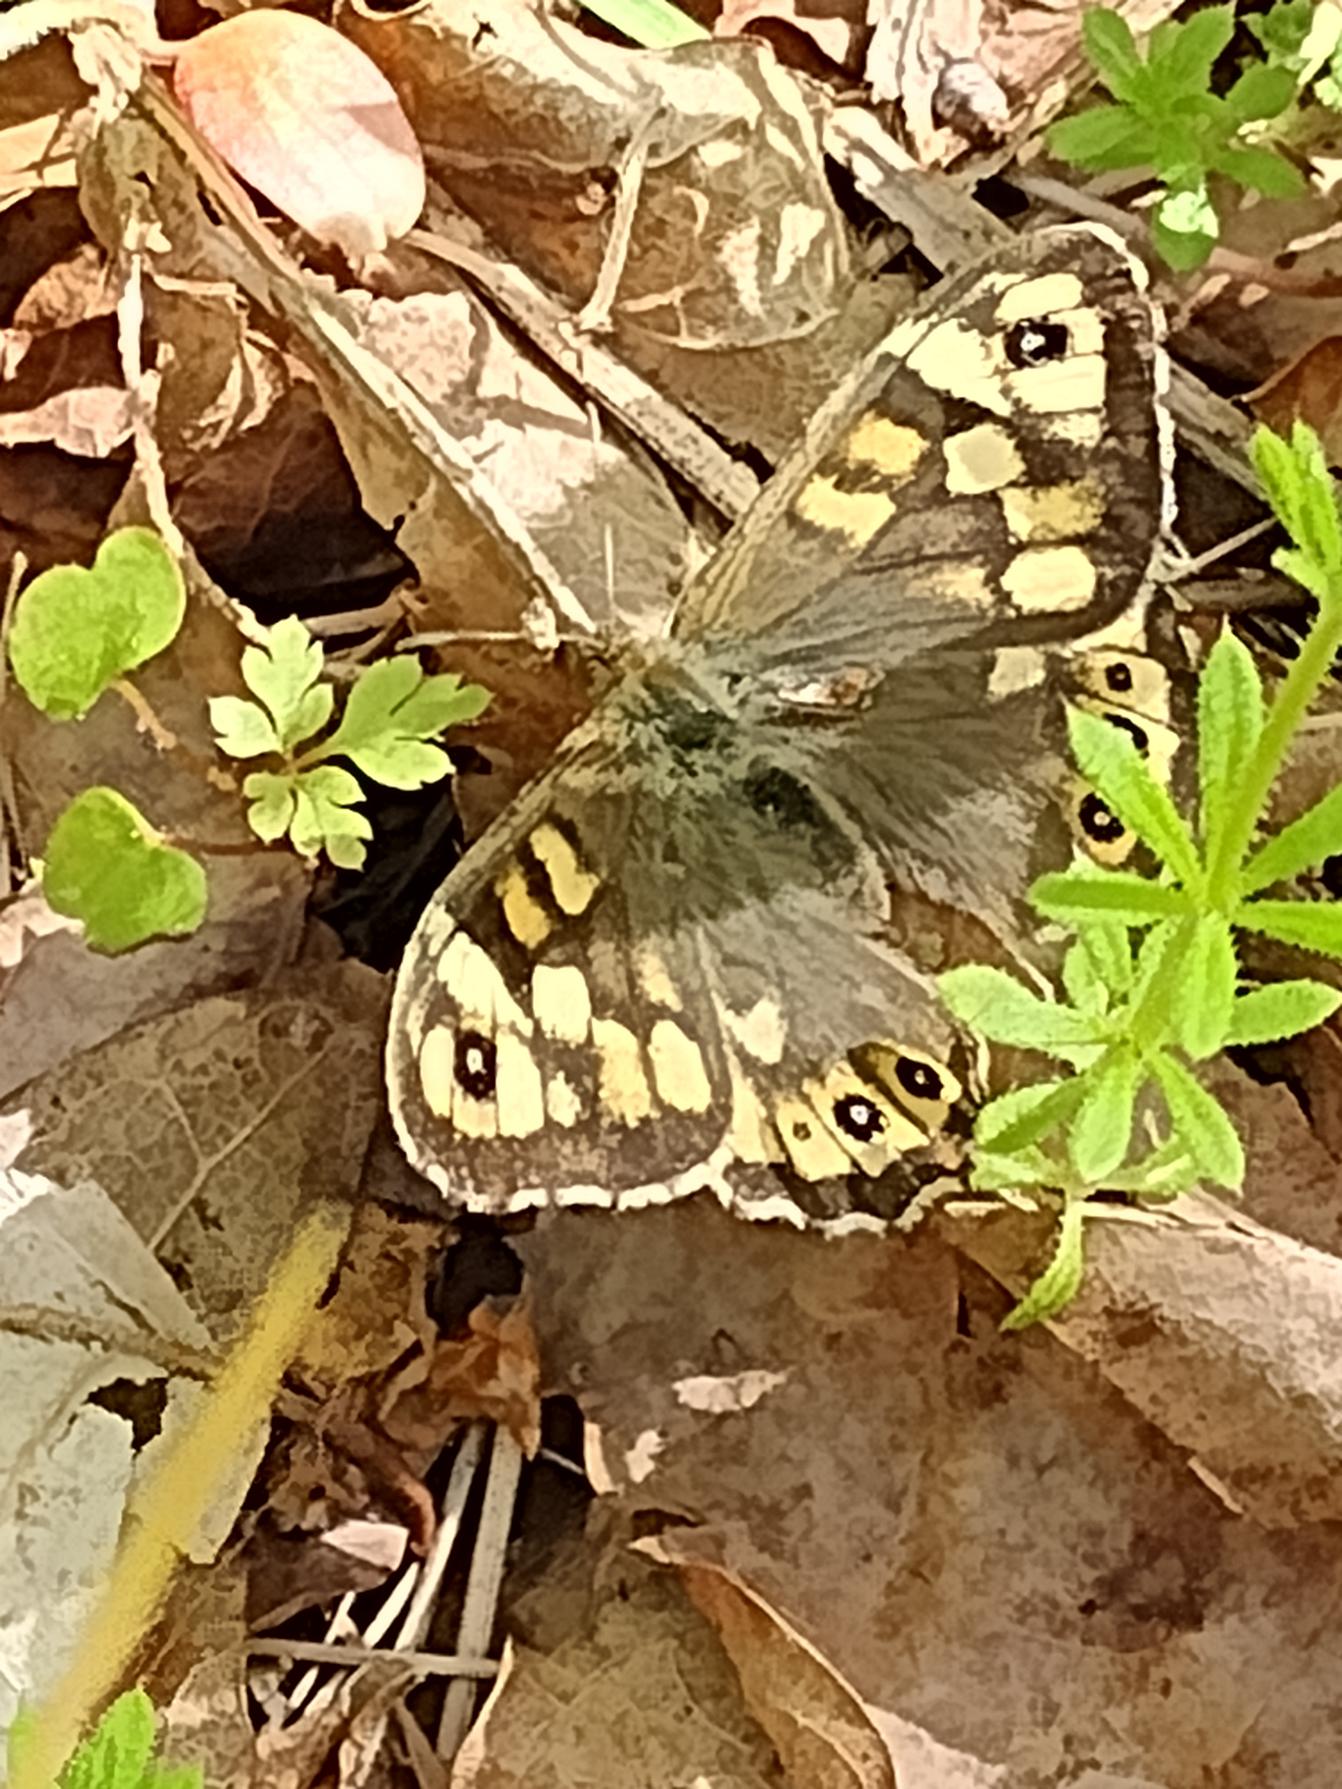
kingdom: Animalia
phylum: Arthropoda
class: Insecta
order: Lepidoptera
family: Nymphalidae
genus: Pararge
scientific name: Pararge aegeria
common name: Skovrandøje
